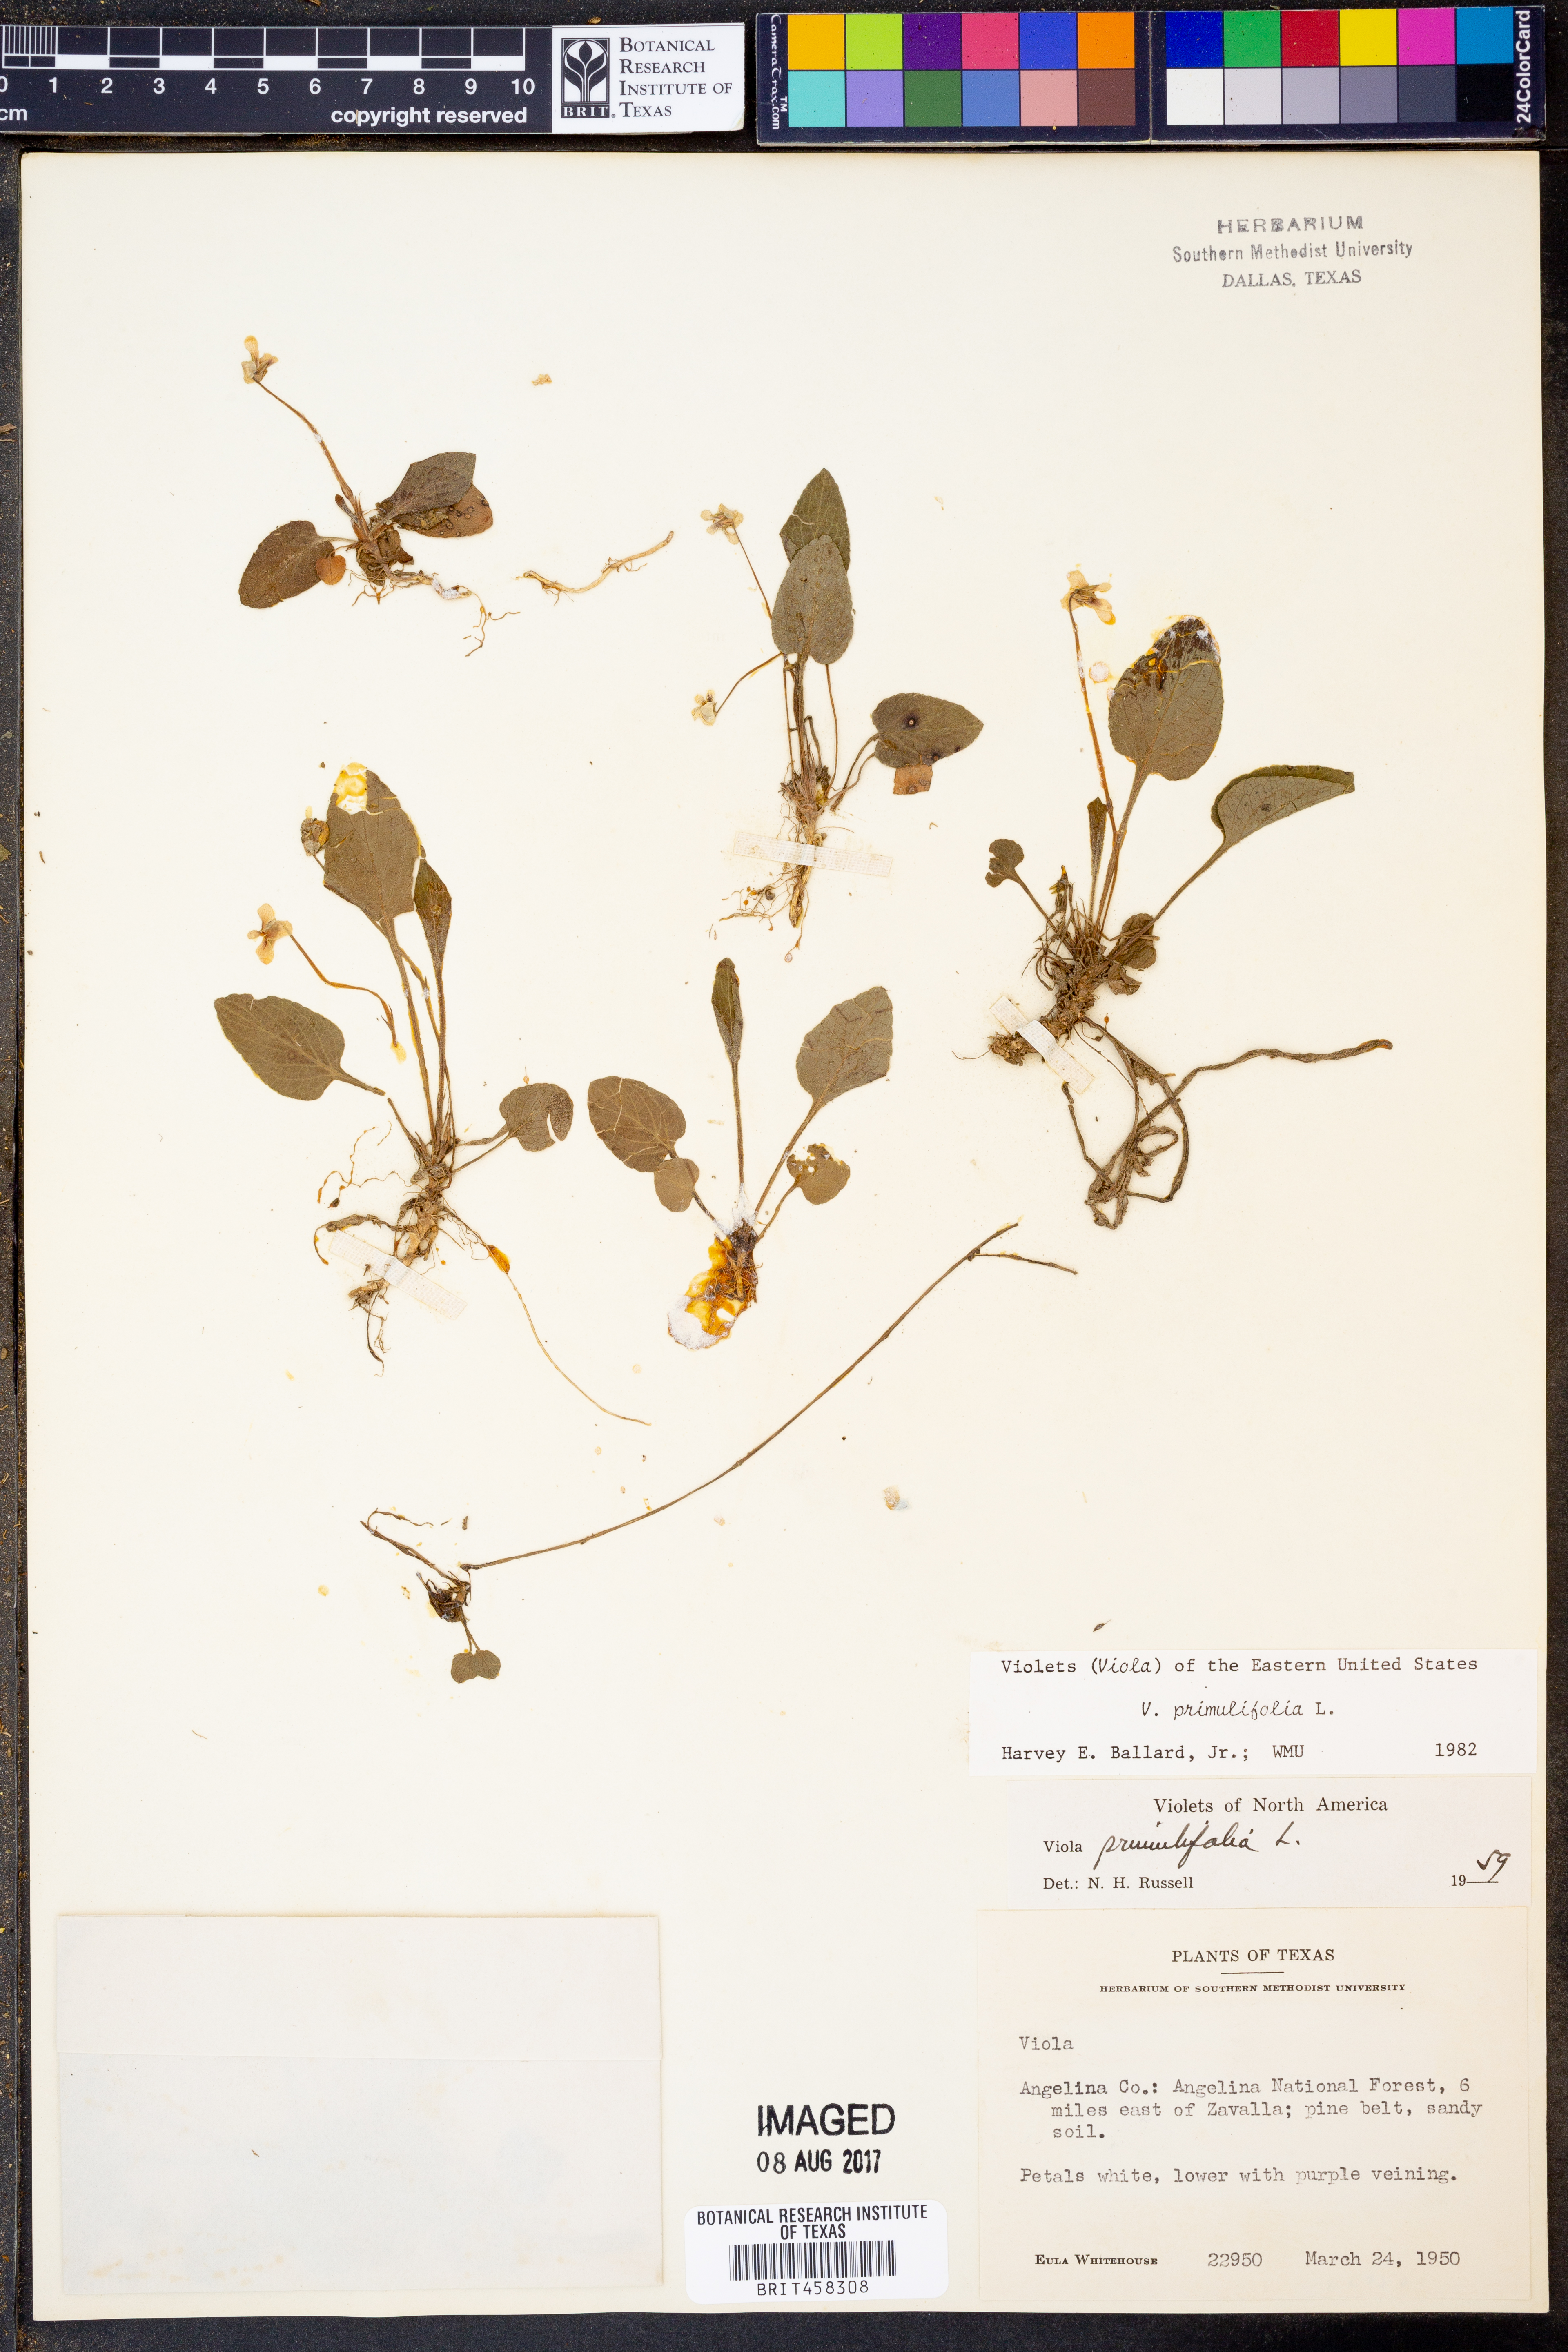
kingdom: Plantae
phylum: Tracheophyta
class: Magnoliopsida
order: Malpighiales
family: Violaceae
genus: Viola
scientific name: Viola primulifolia
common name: Primrose-leaf violet
